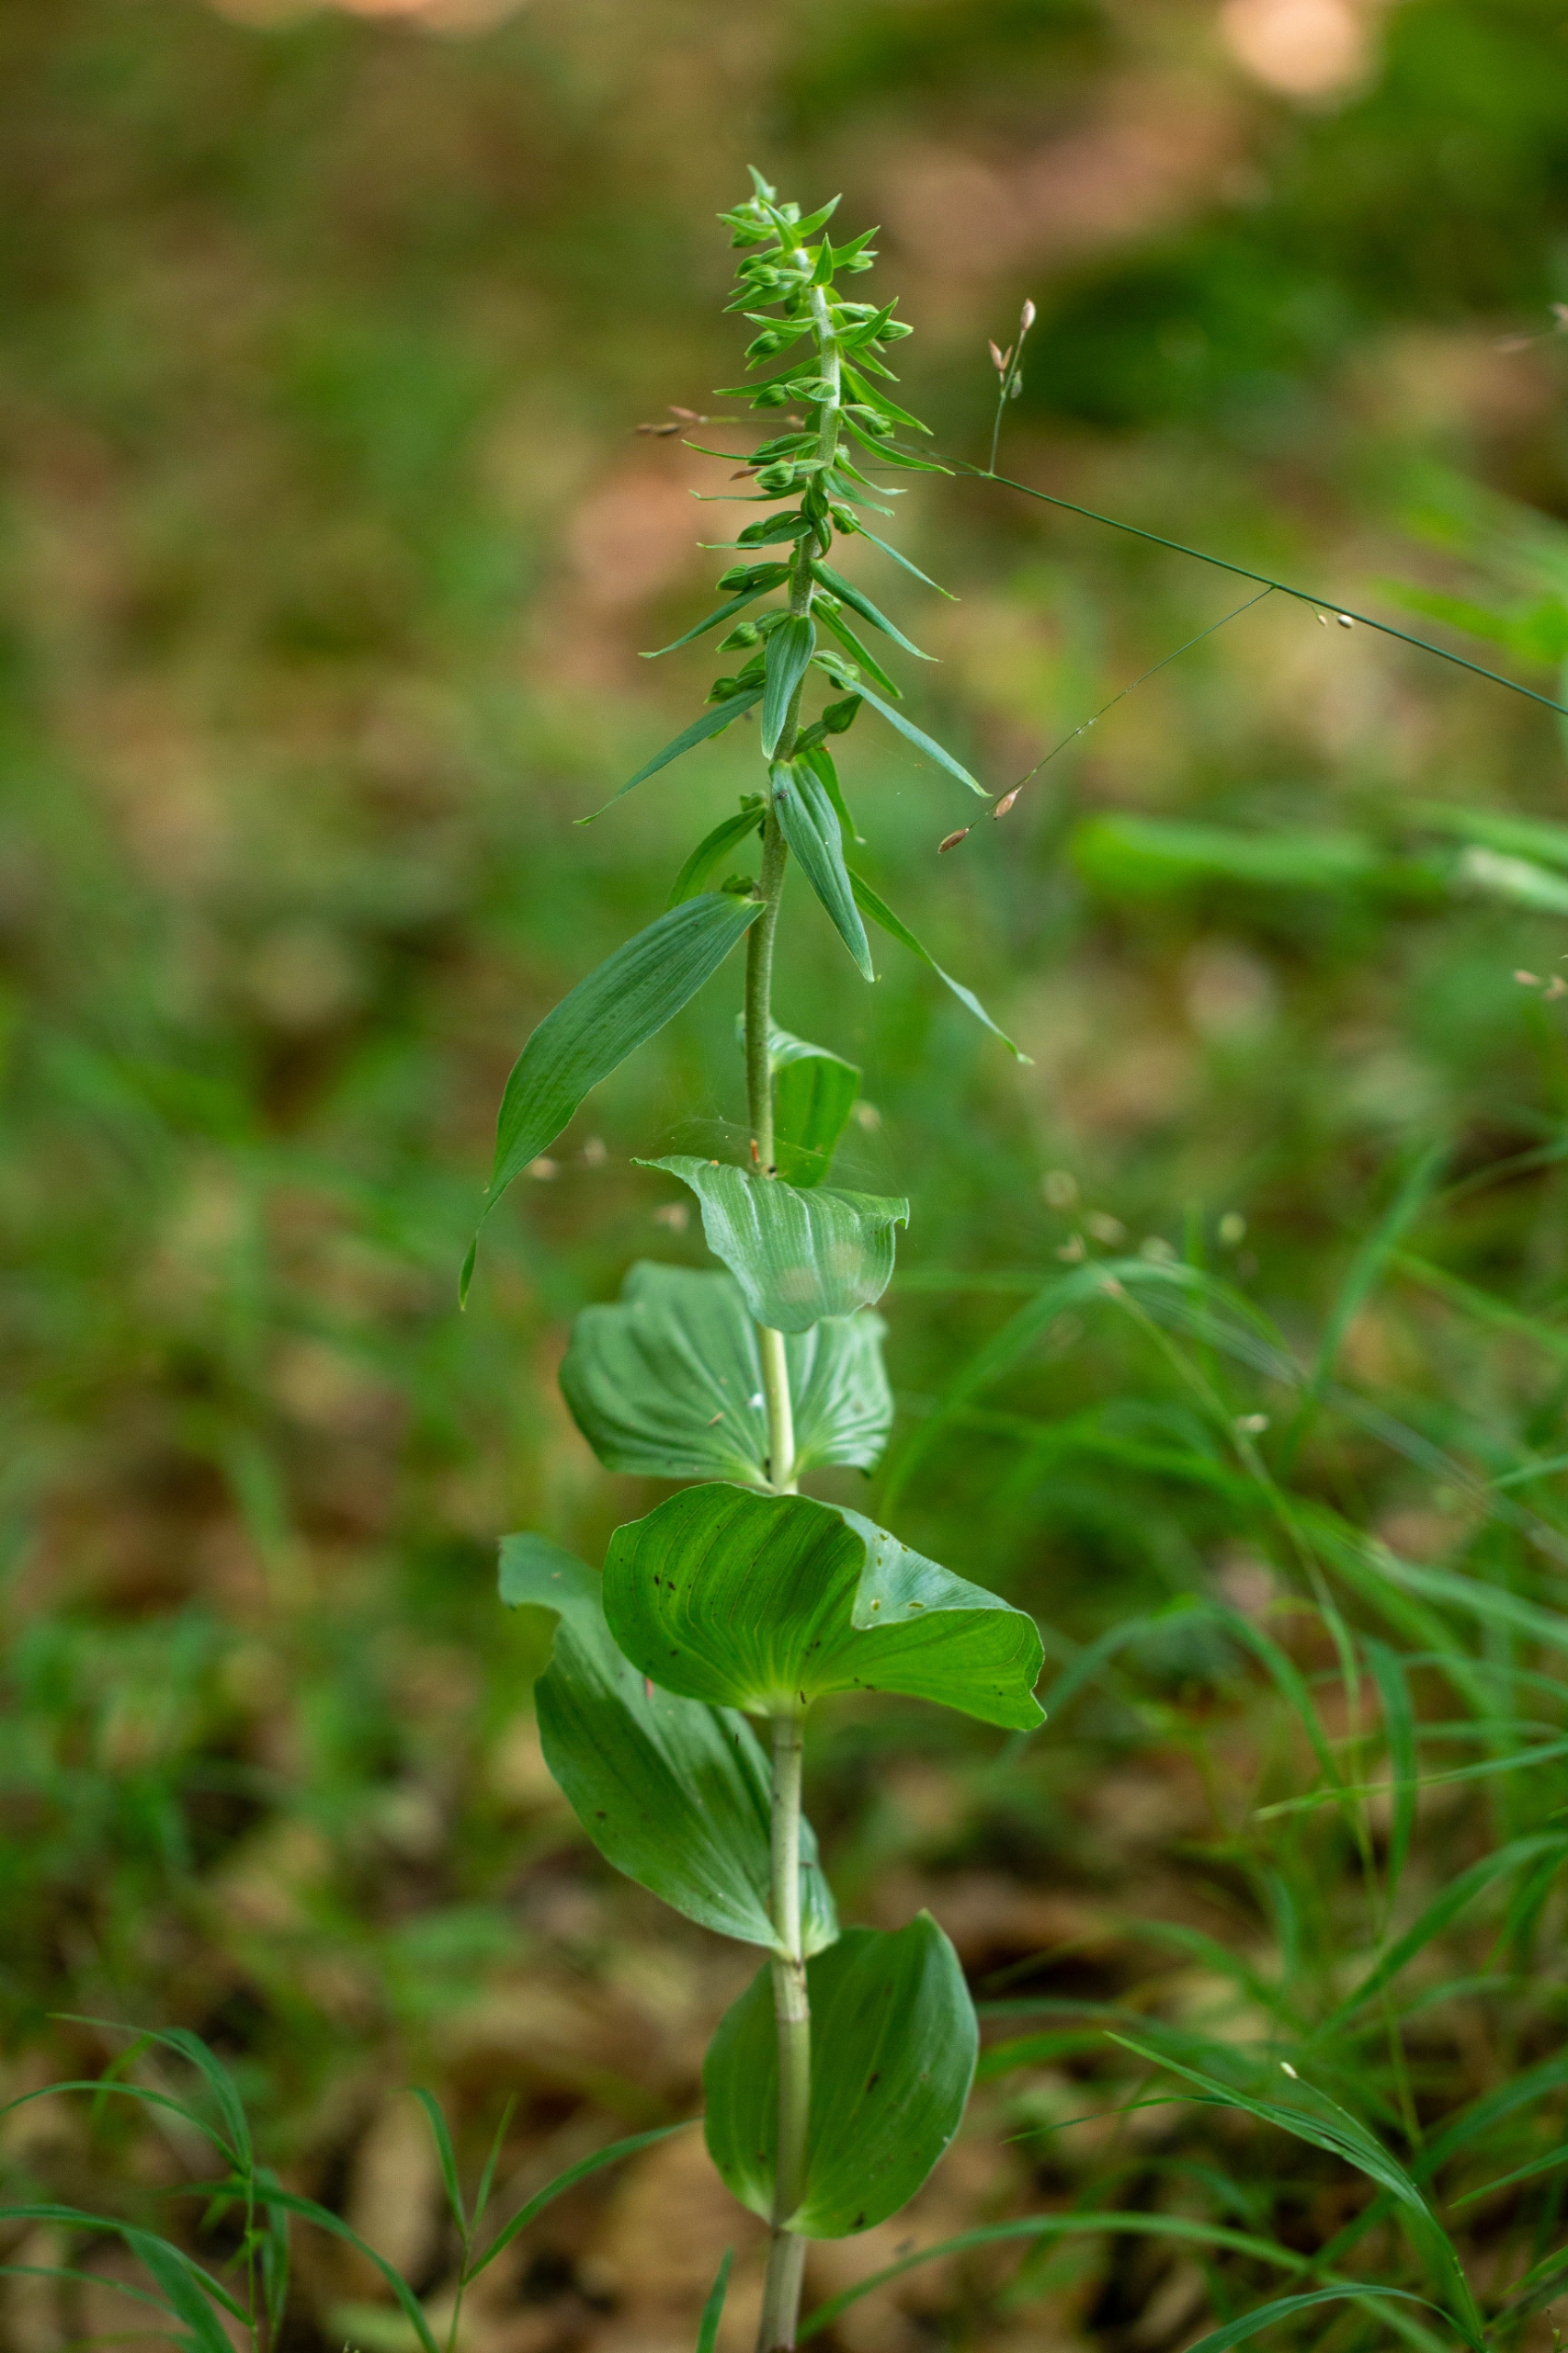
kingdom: Plantae
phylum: Tracheophyta
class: Liliopsida
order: Asparagales
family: Orchidaceae
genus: Epipactis
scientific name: Epipactis helleborine
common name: Skov-hullæbe
